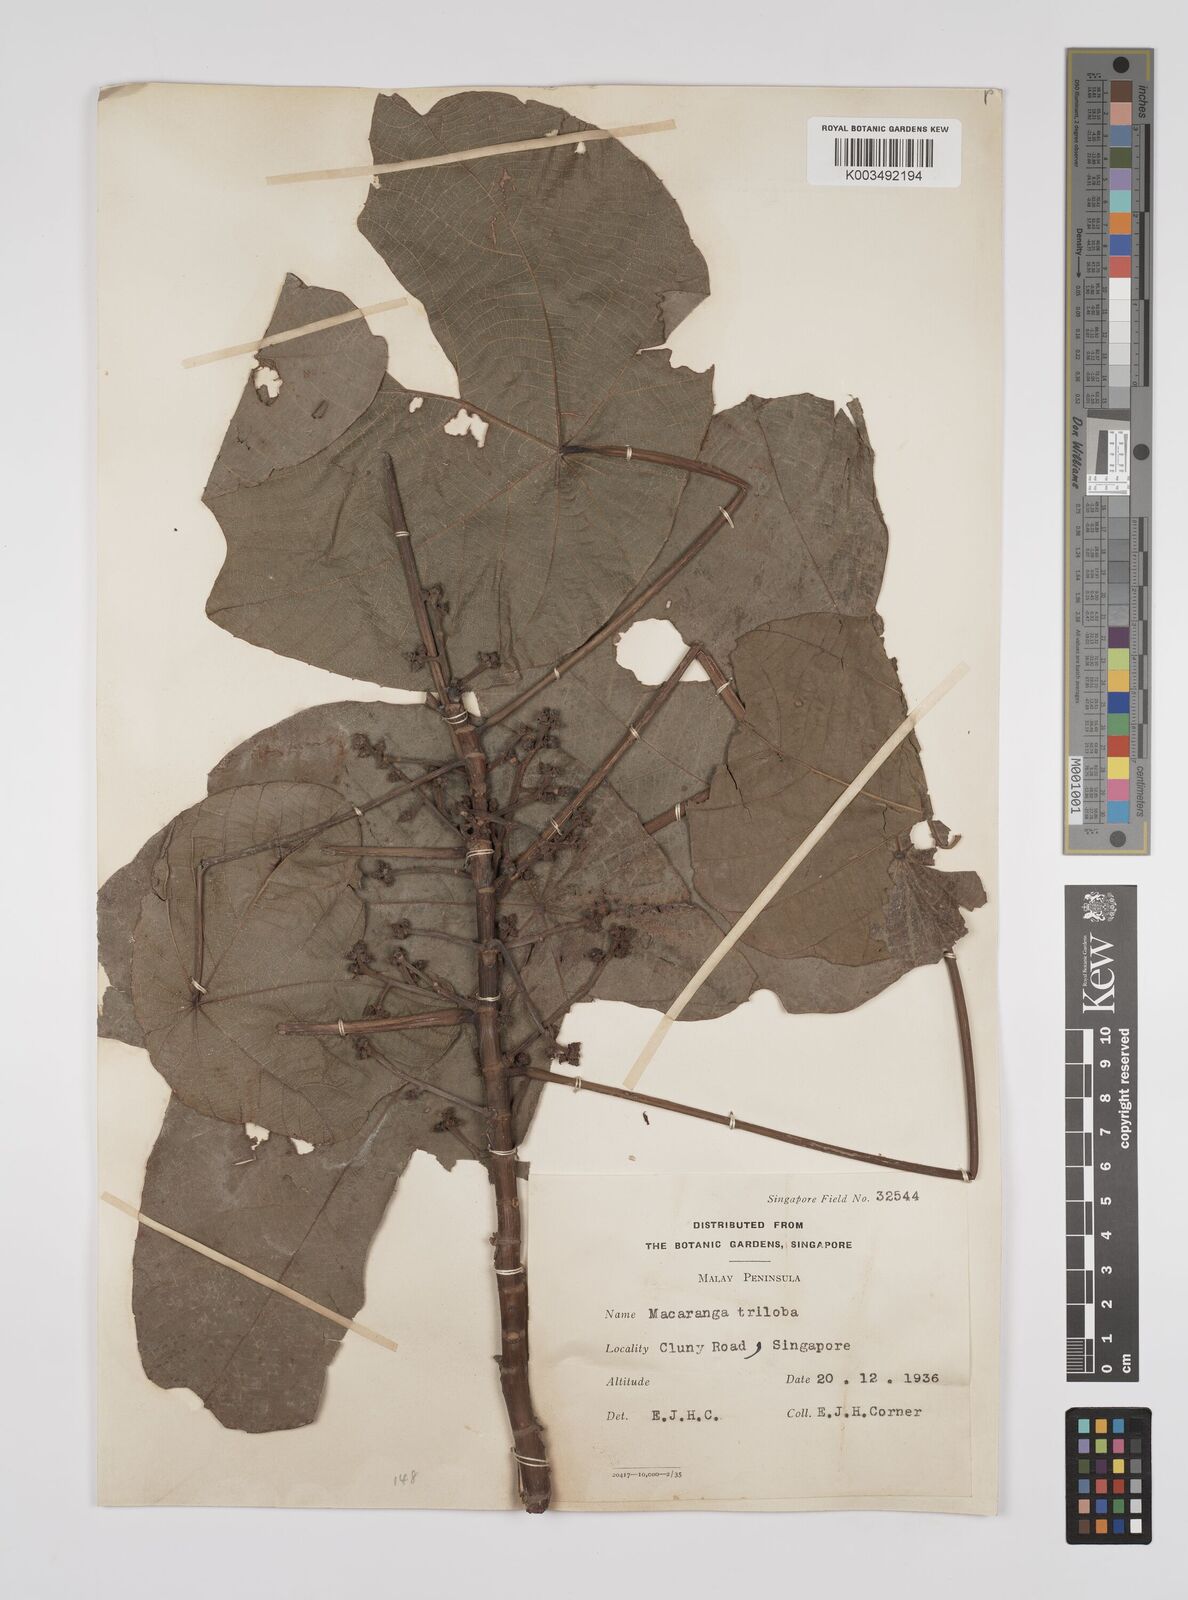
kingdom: Plantae
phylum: Tracheophyta
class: Magnoliopsida
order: Malpighiales
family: Euphorbiaceae
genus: Macaranga
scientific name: Macaranga triloba
